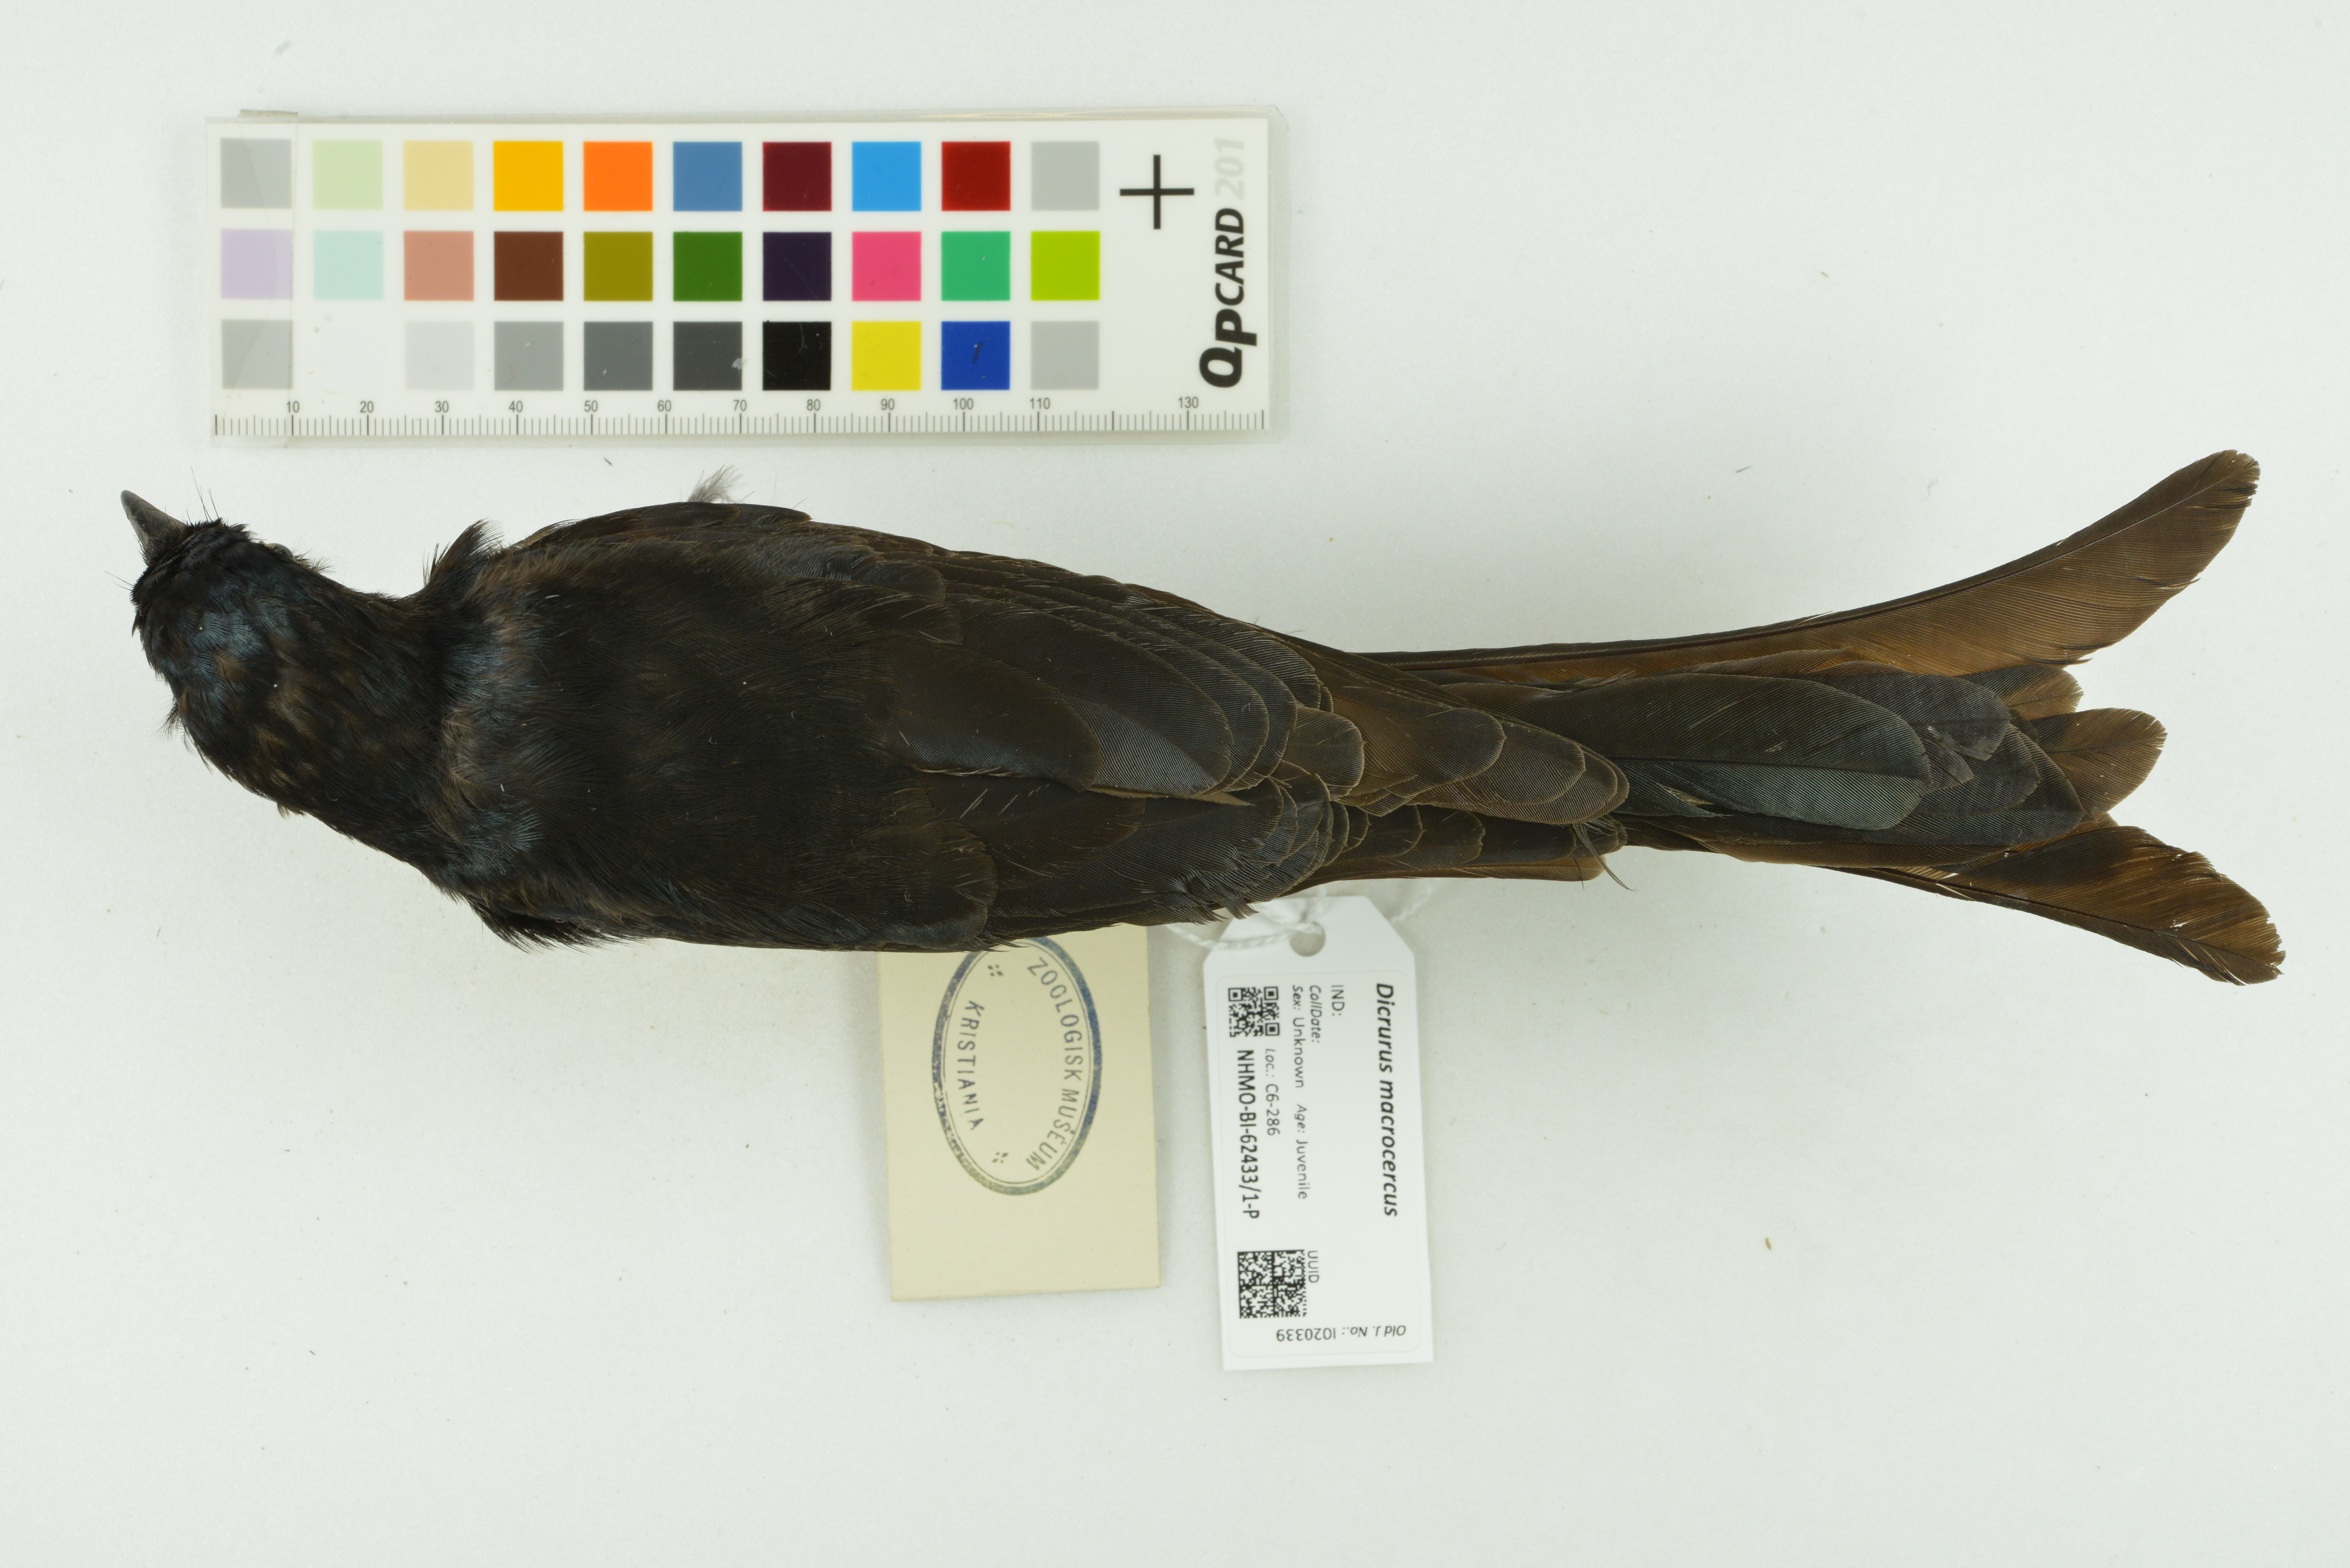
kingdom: Animalia
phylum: Chordata
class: Aves
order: Passeriformes
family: Dicruridae
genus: Dicrurus
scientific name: Dicrurus macrocercus
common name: Black drongo
